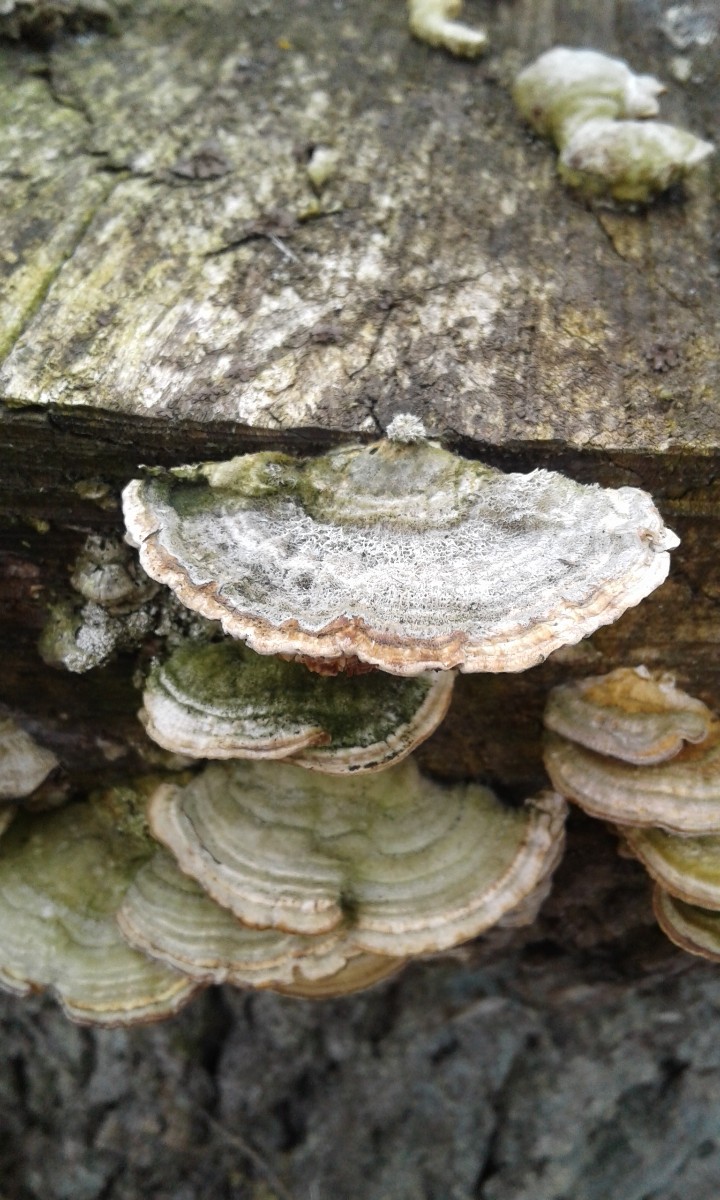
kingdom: Fungi
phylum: Basidiomycota
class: Agaricomycetes
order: Polyporales
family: Polyporaceae
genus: Lenzites
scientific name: Lenzites betulinus
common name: birke-læderporesvamp
